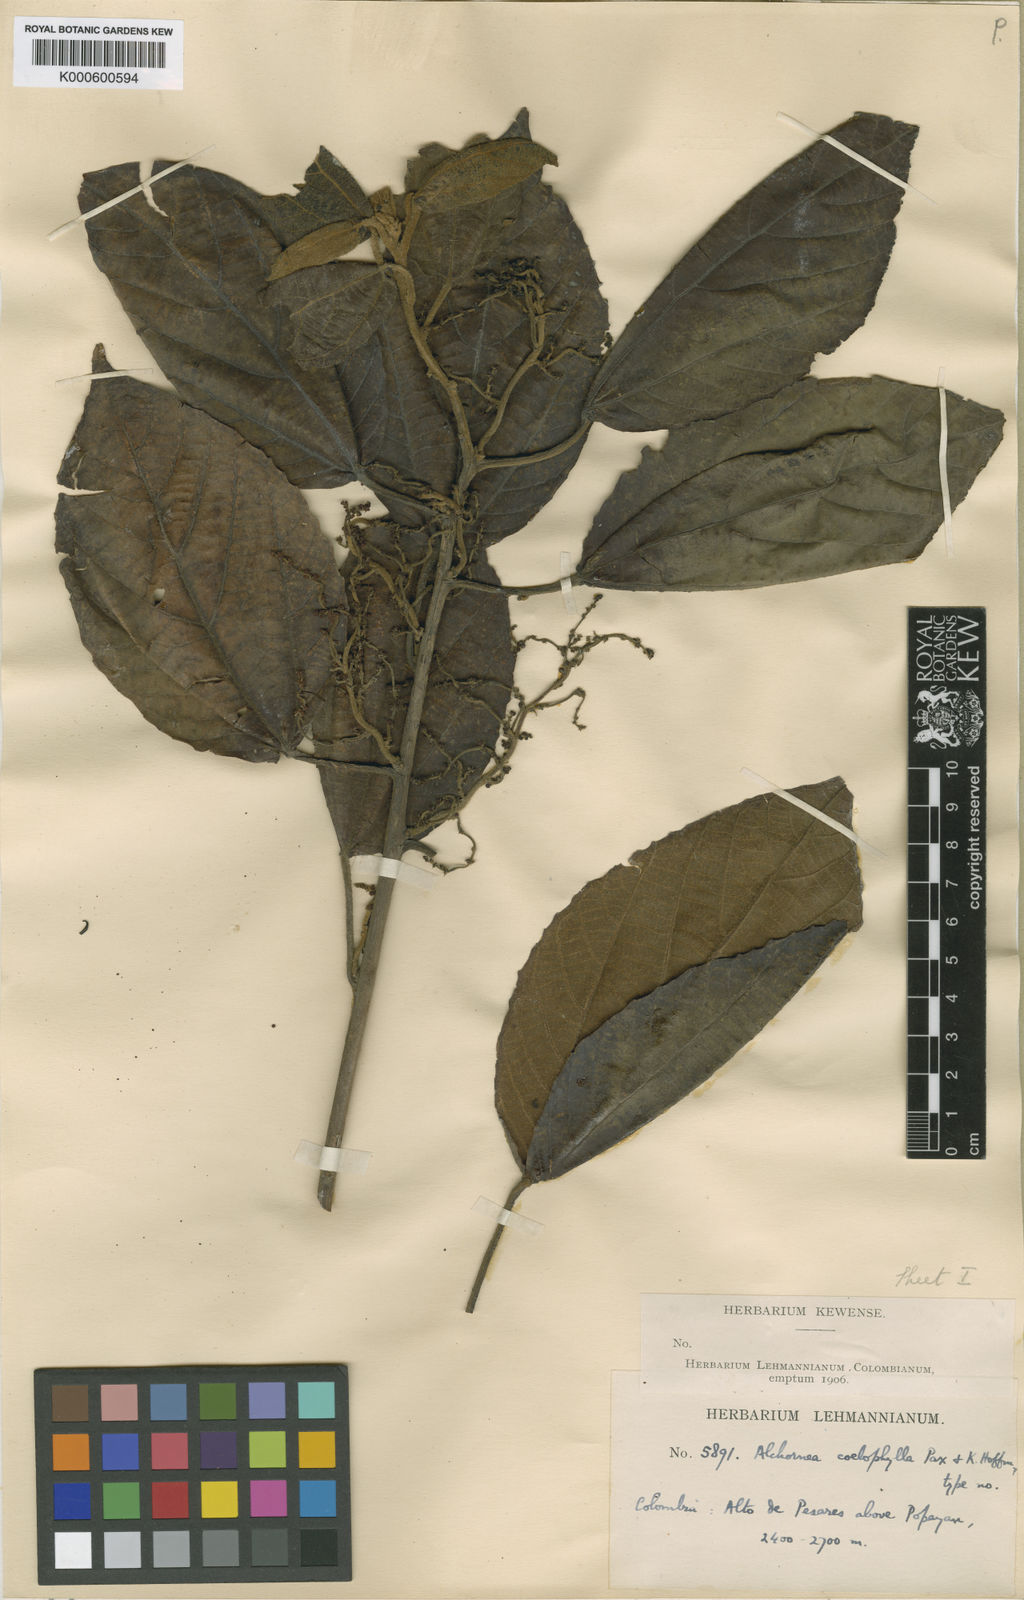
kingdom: Plantae
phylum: Tracheophyta
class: Magnoliopsida
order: Malpighiales
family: Euphorbiaceae
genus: Alchornea
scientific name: Alchornea coelophylla
